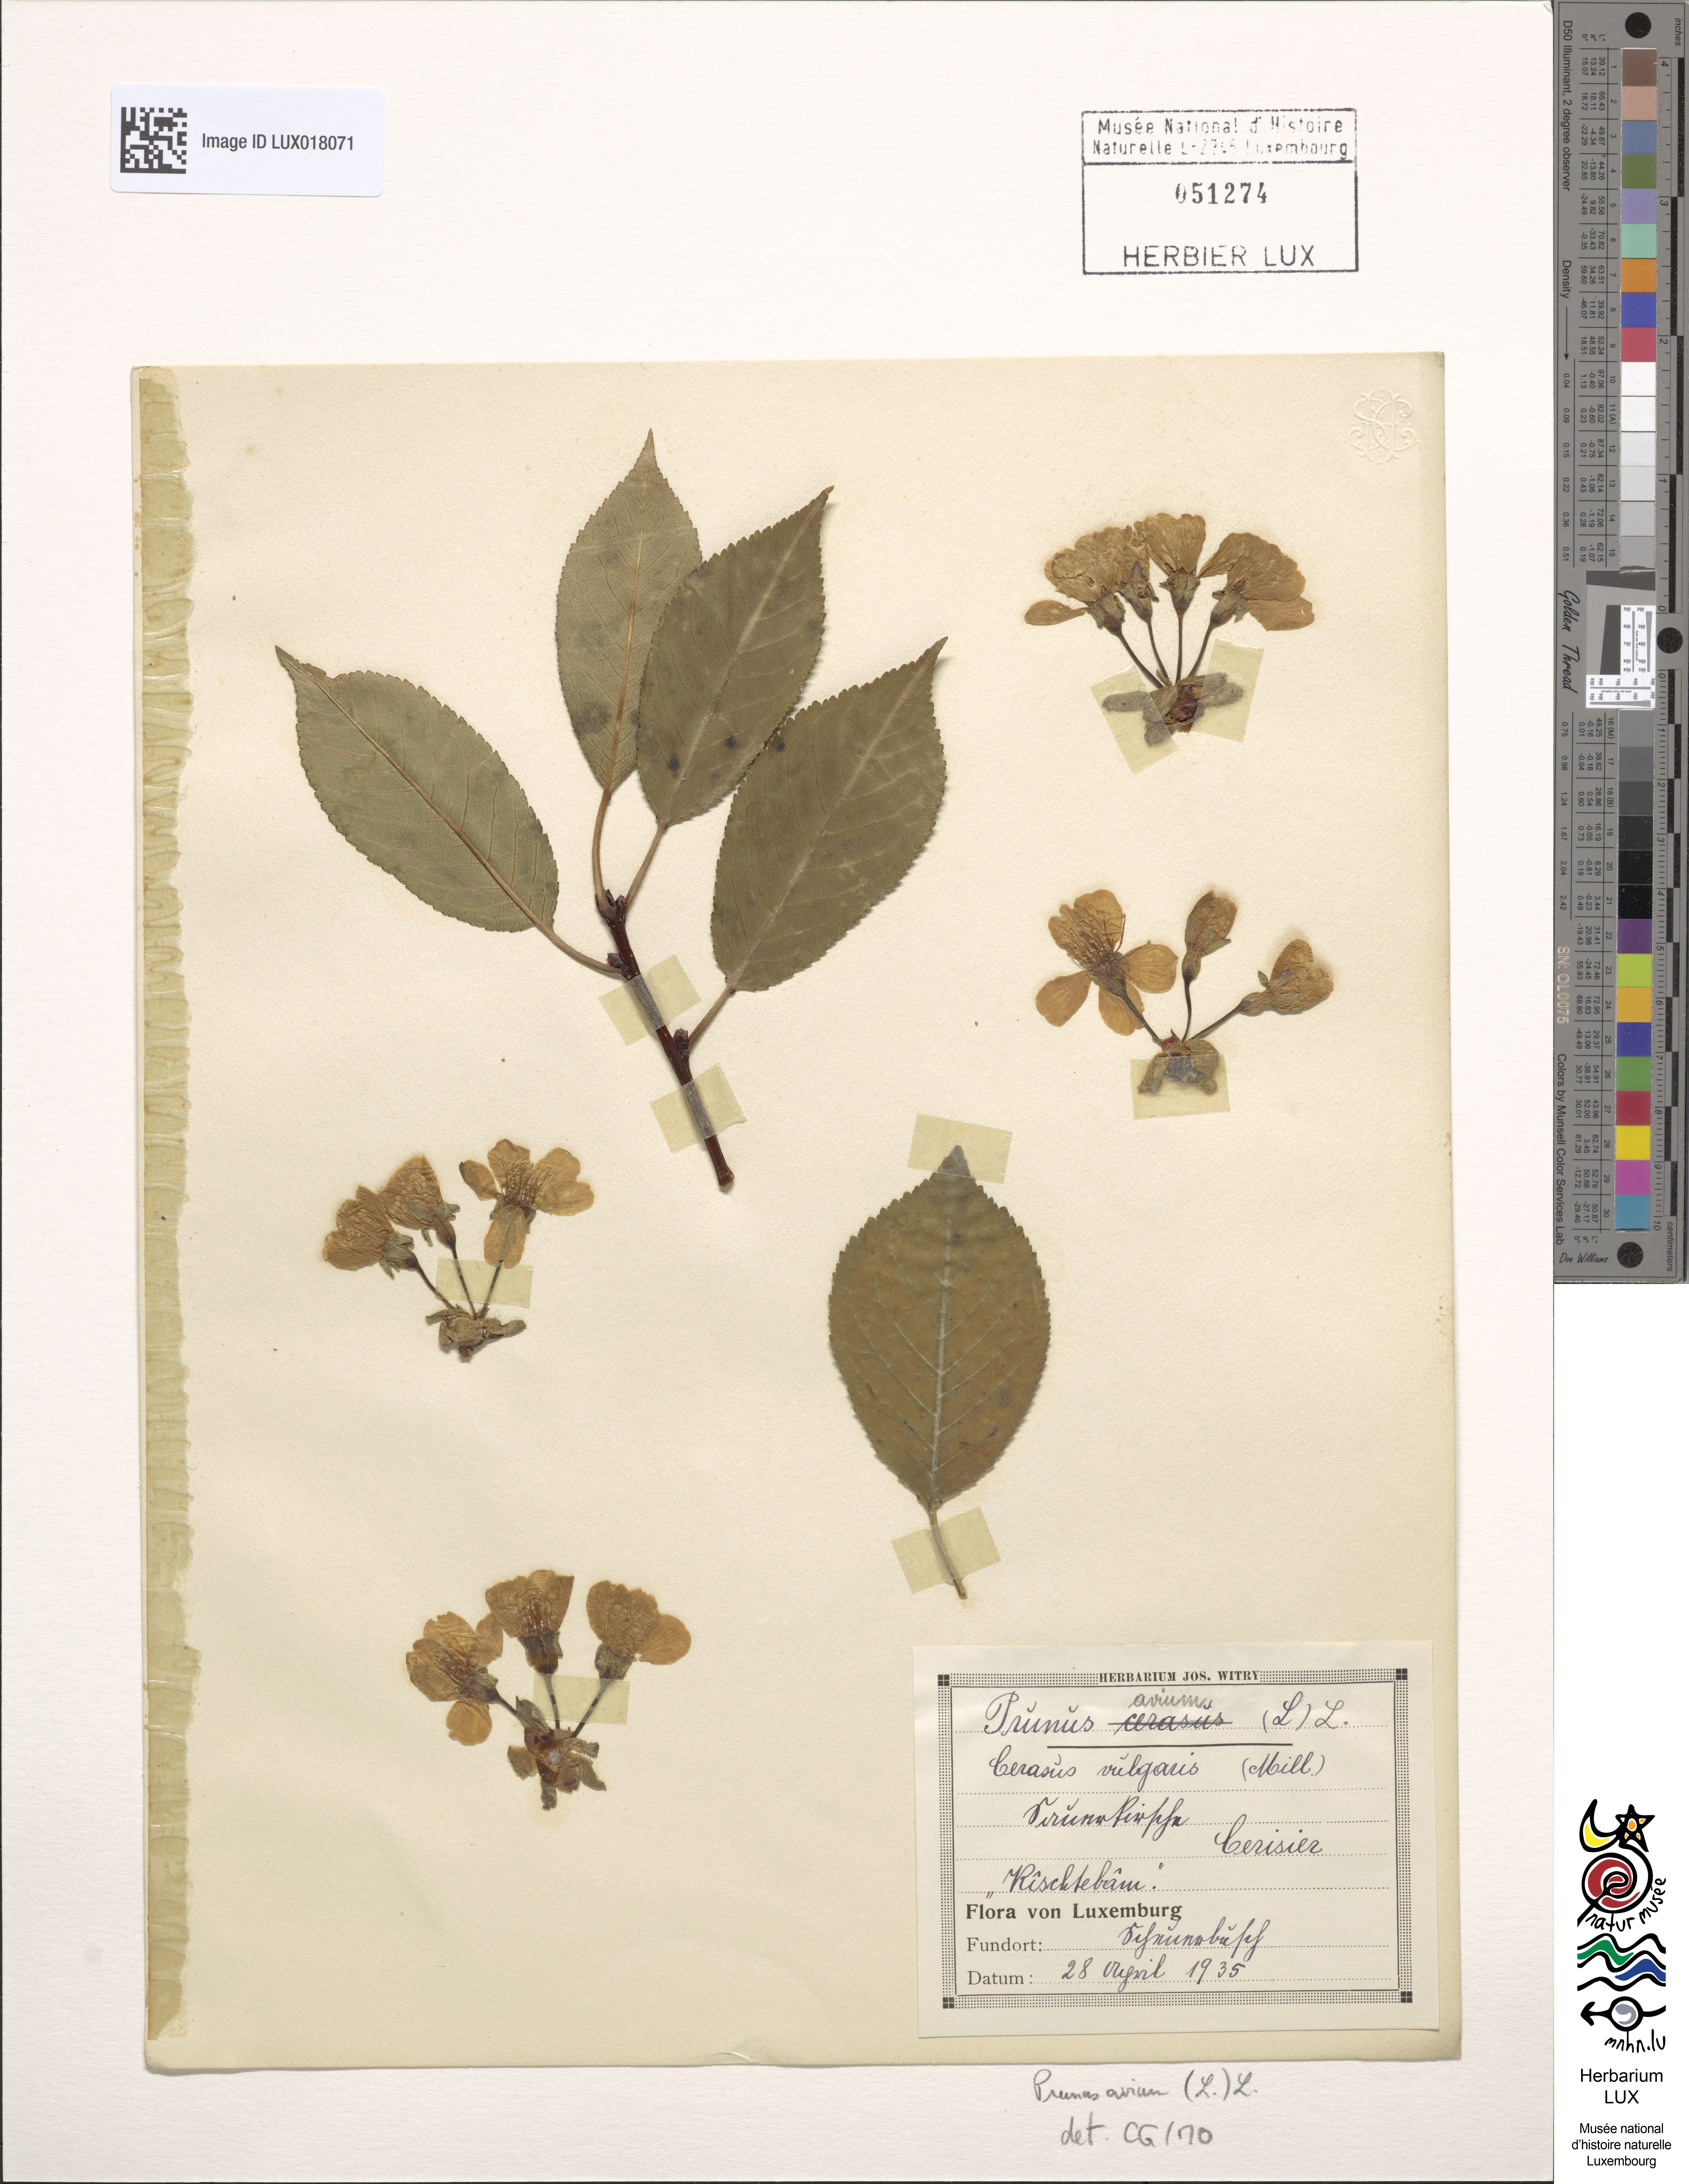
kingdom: Plantae
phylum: Tracheophyta
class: Magnoliopsida
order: Rosales
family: Rosaceae
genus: Prunus
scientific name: Prunus avium
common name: Sweet cherry
